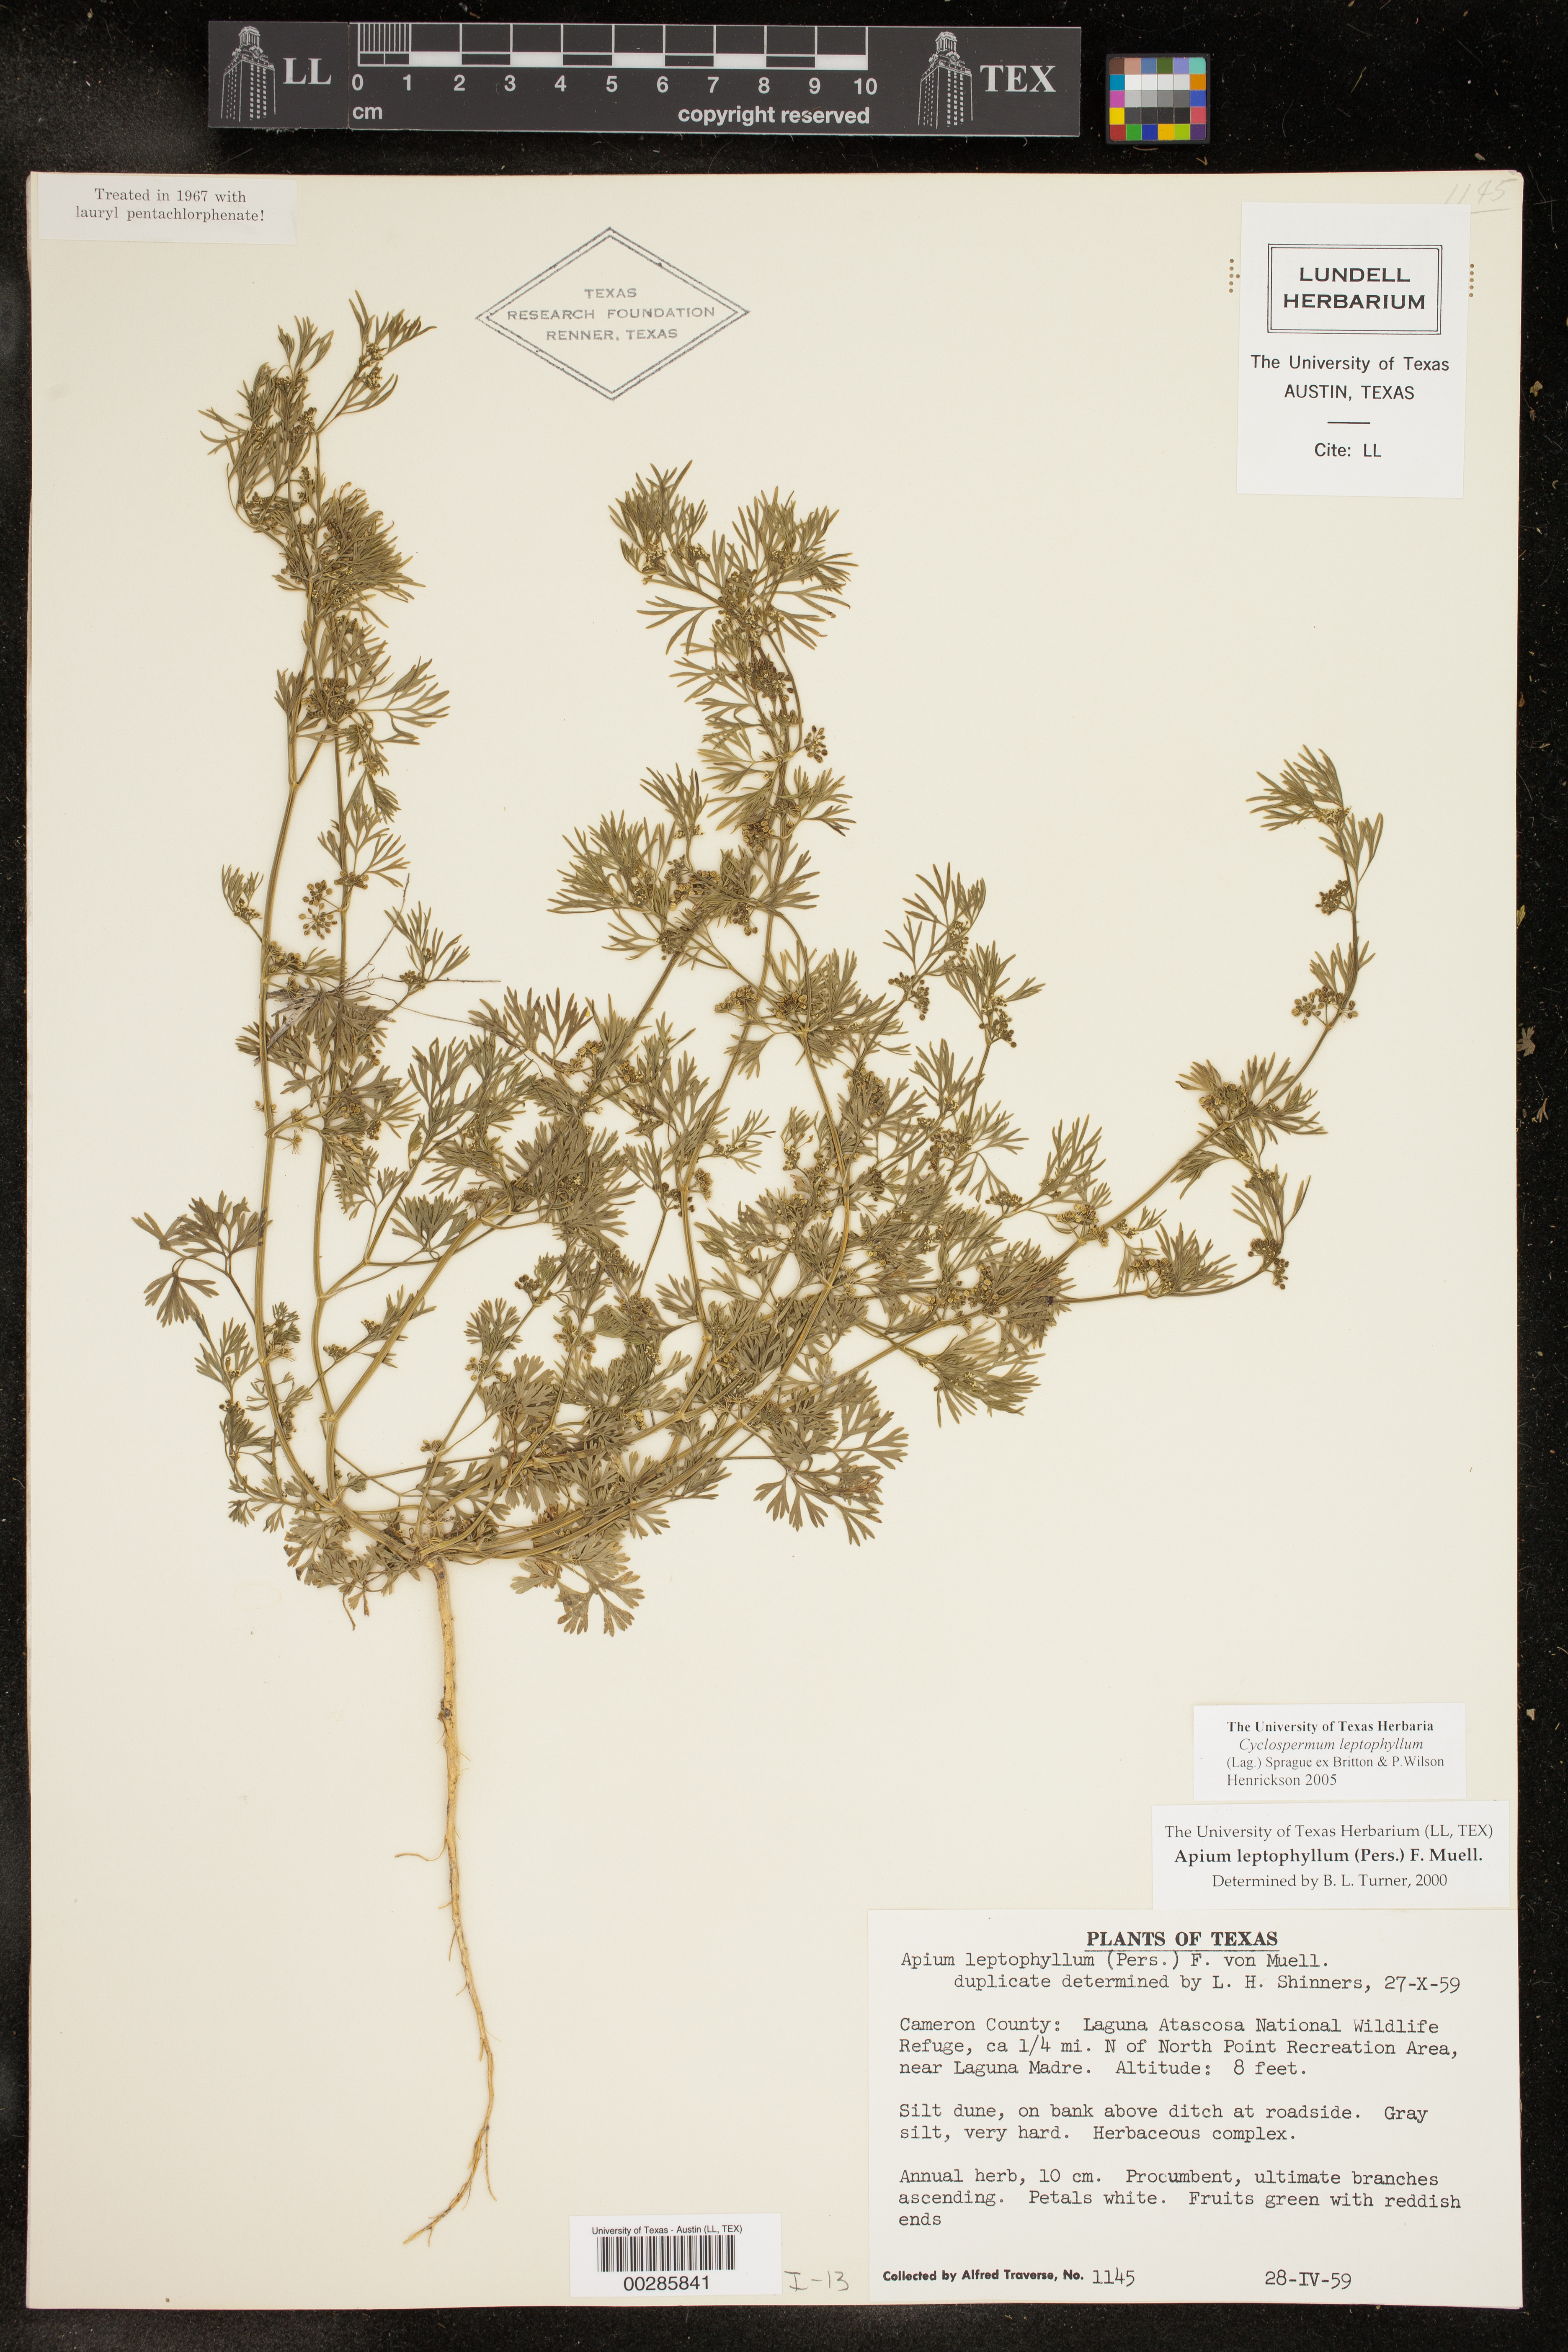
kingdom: Plantae
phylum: Tracheophyta
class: Magnoliopsida
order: Apiales
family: Apiaceae
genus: Cyclospermum
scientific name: Cyclospermum leptophyllum
